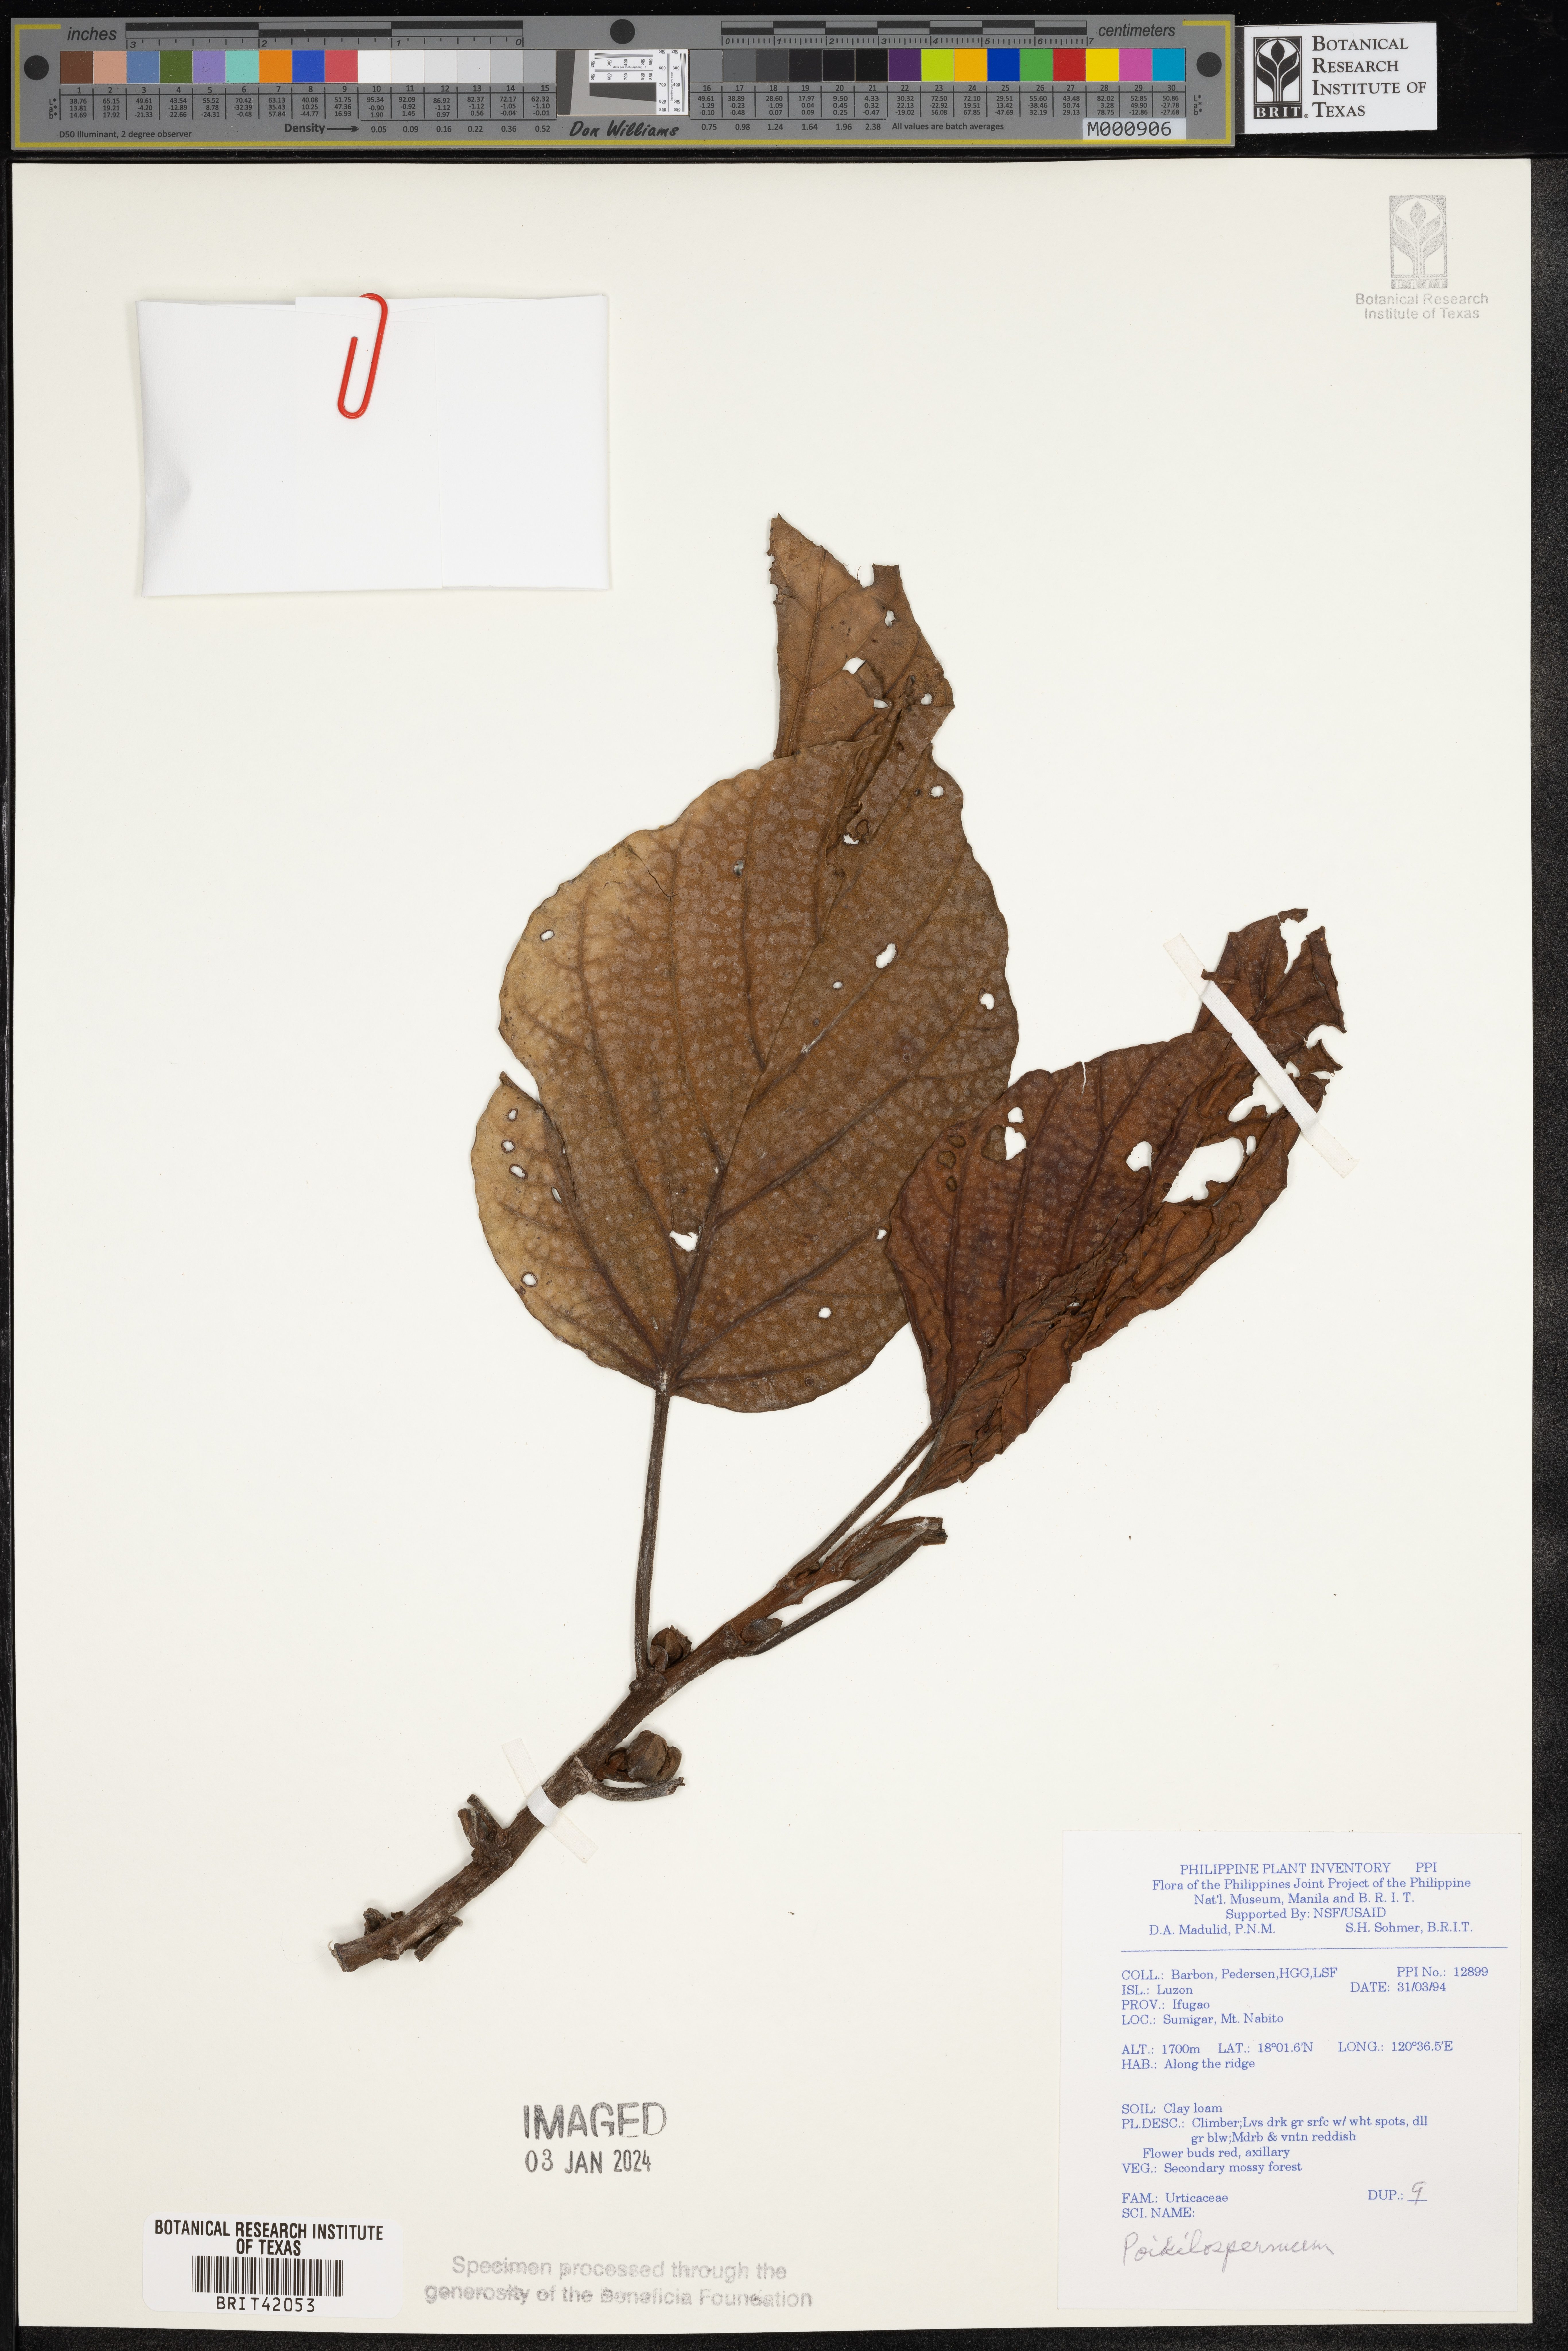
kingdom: Plantae
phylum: Tracheophyta
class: Magnoliopsida
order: Rosales
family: Urticaceae
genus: Poikilospermum
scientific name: Poikilospermum
